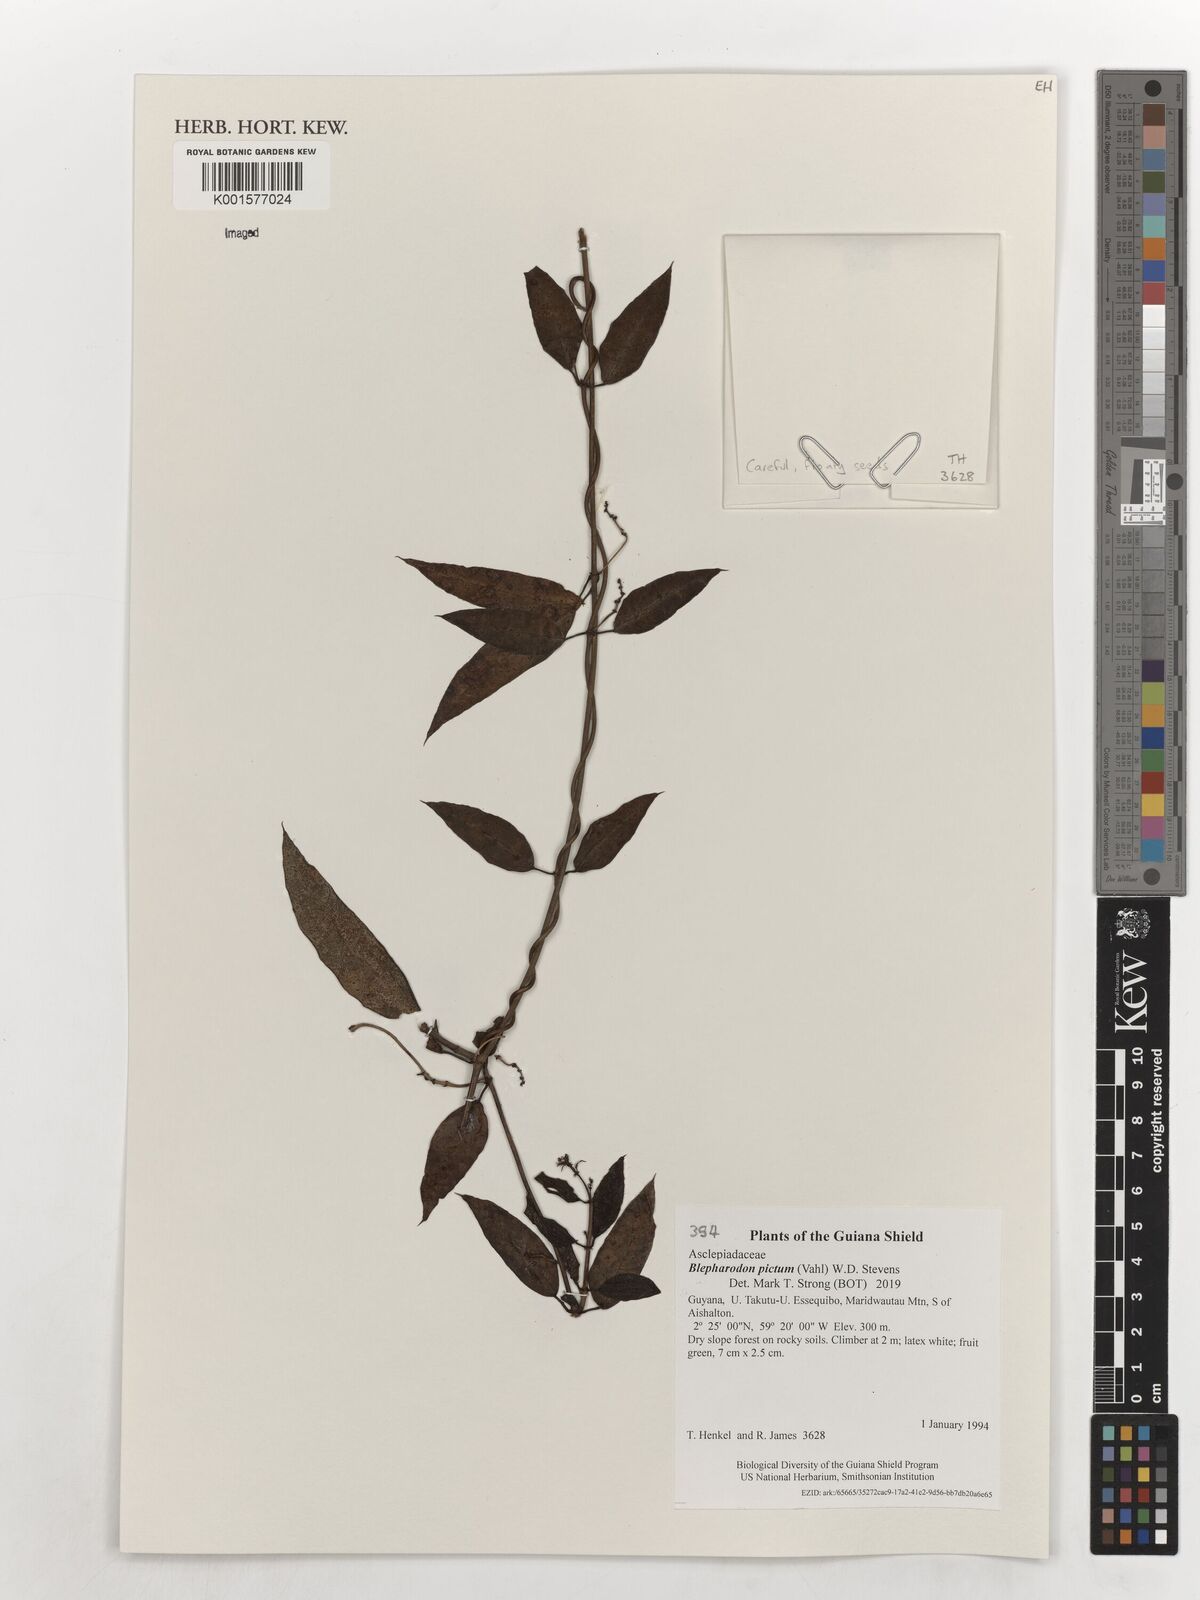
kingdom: Plantae
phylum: Tracheophyta
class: Magnoliopsida
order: Gentianales
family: Apocynaceae
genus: Blepharodon
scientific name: Blepharodon pictum
